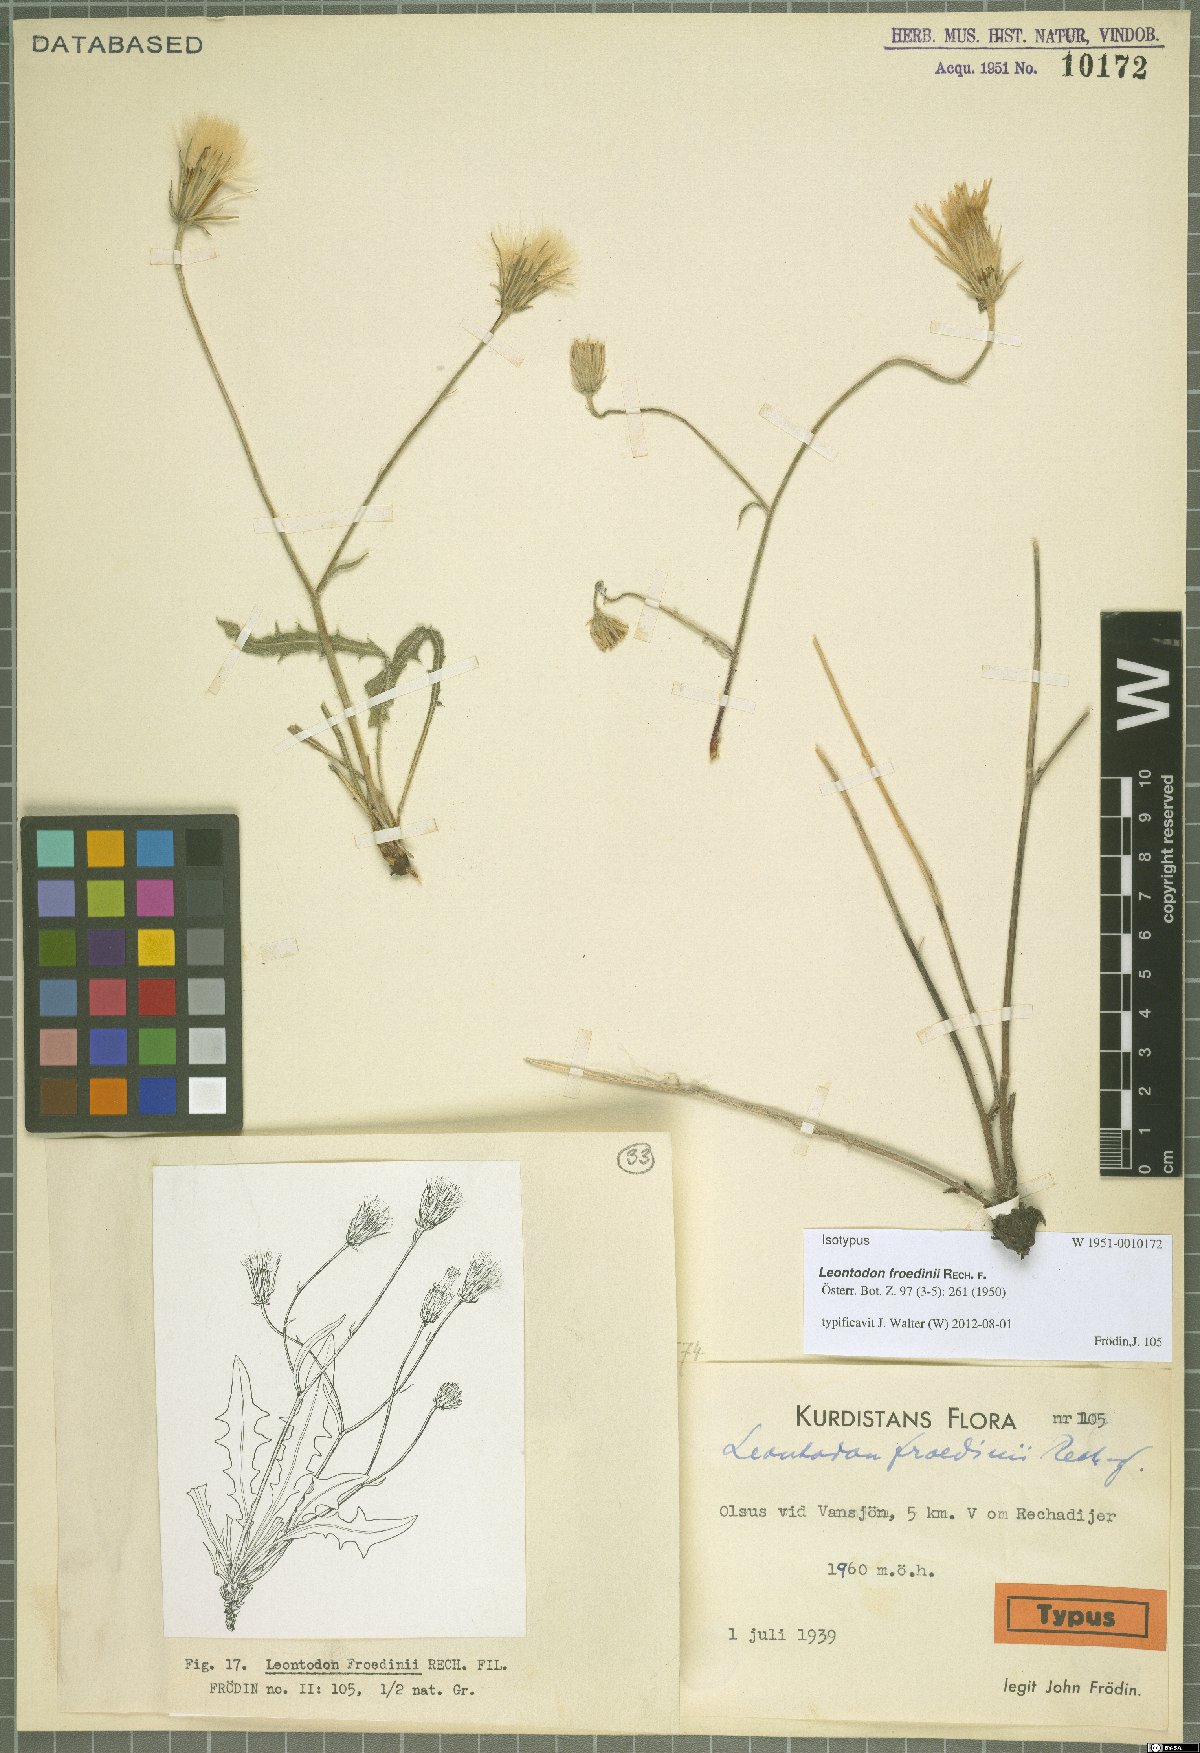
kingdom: Plantae
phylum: Tracheophyta
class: Magnoliopsida
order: Asterales
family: Asteraceae
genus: Leontodon
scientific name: Leontodon froedinii
